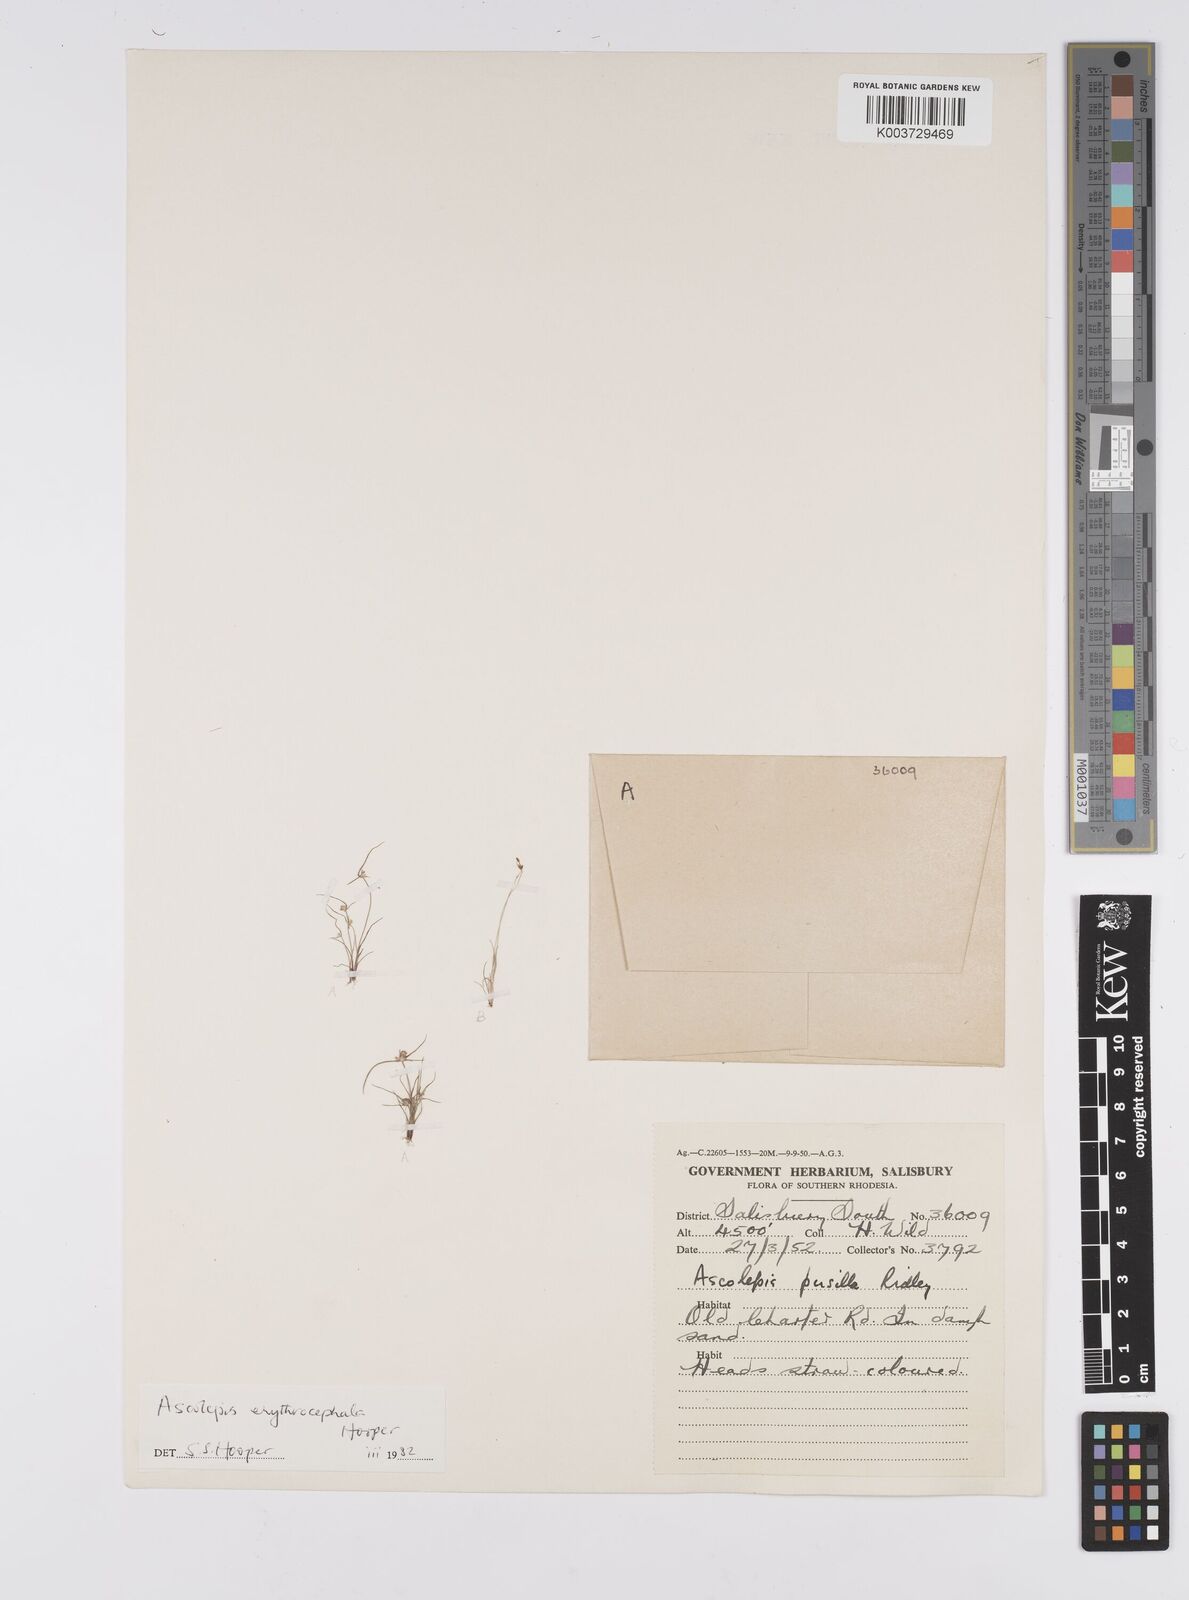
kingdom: Plantae
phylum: Tracheophyta
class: Liliopsida
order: Poales
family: Cyperaceae
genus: Cyperus
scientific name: Cyperus erythrocephalus
